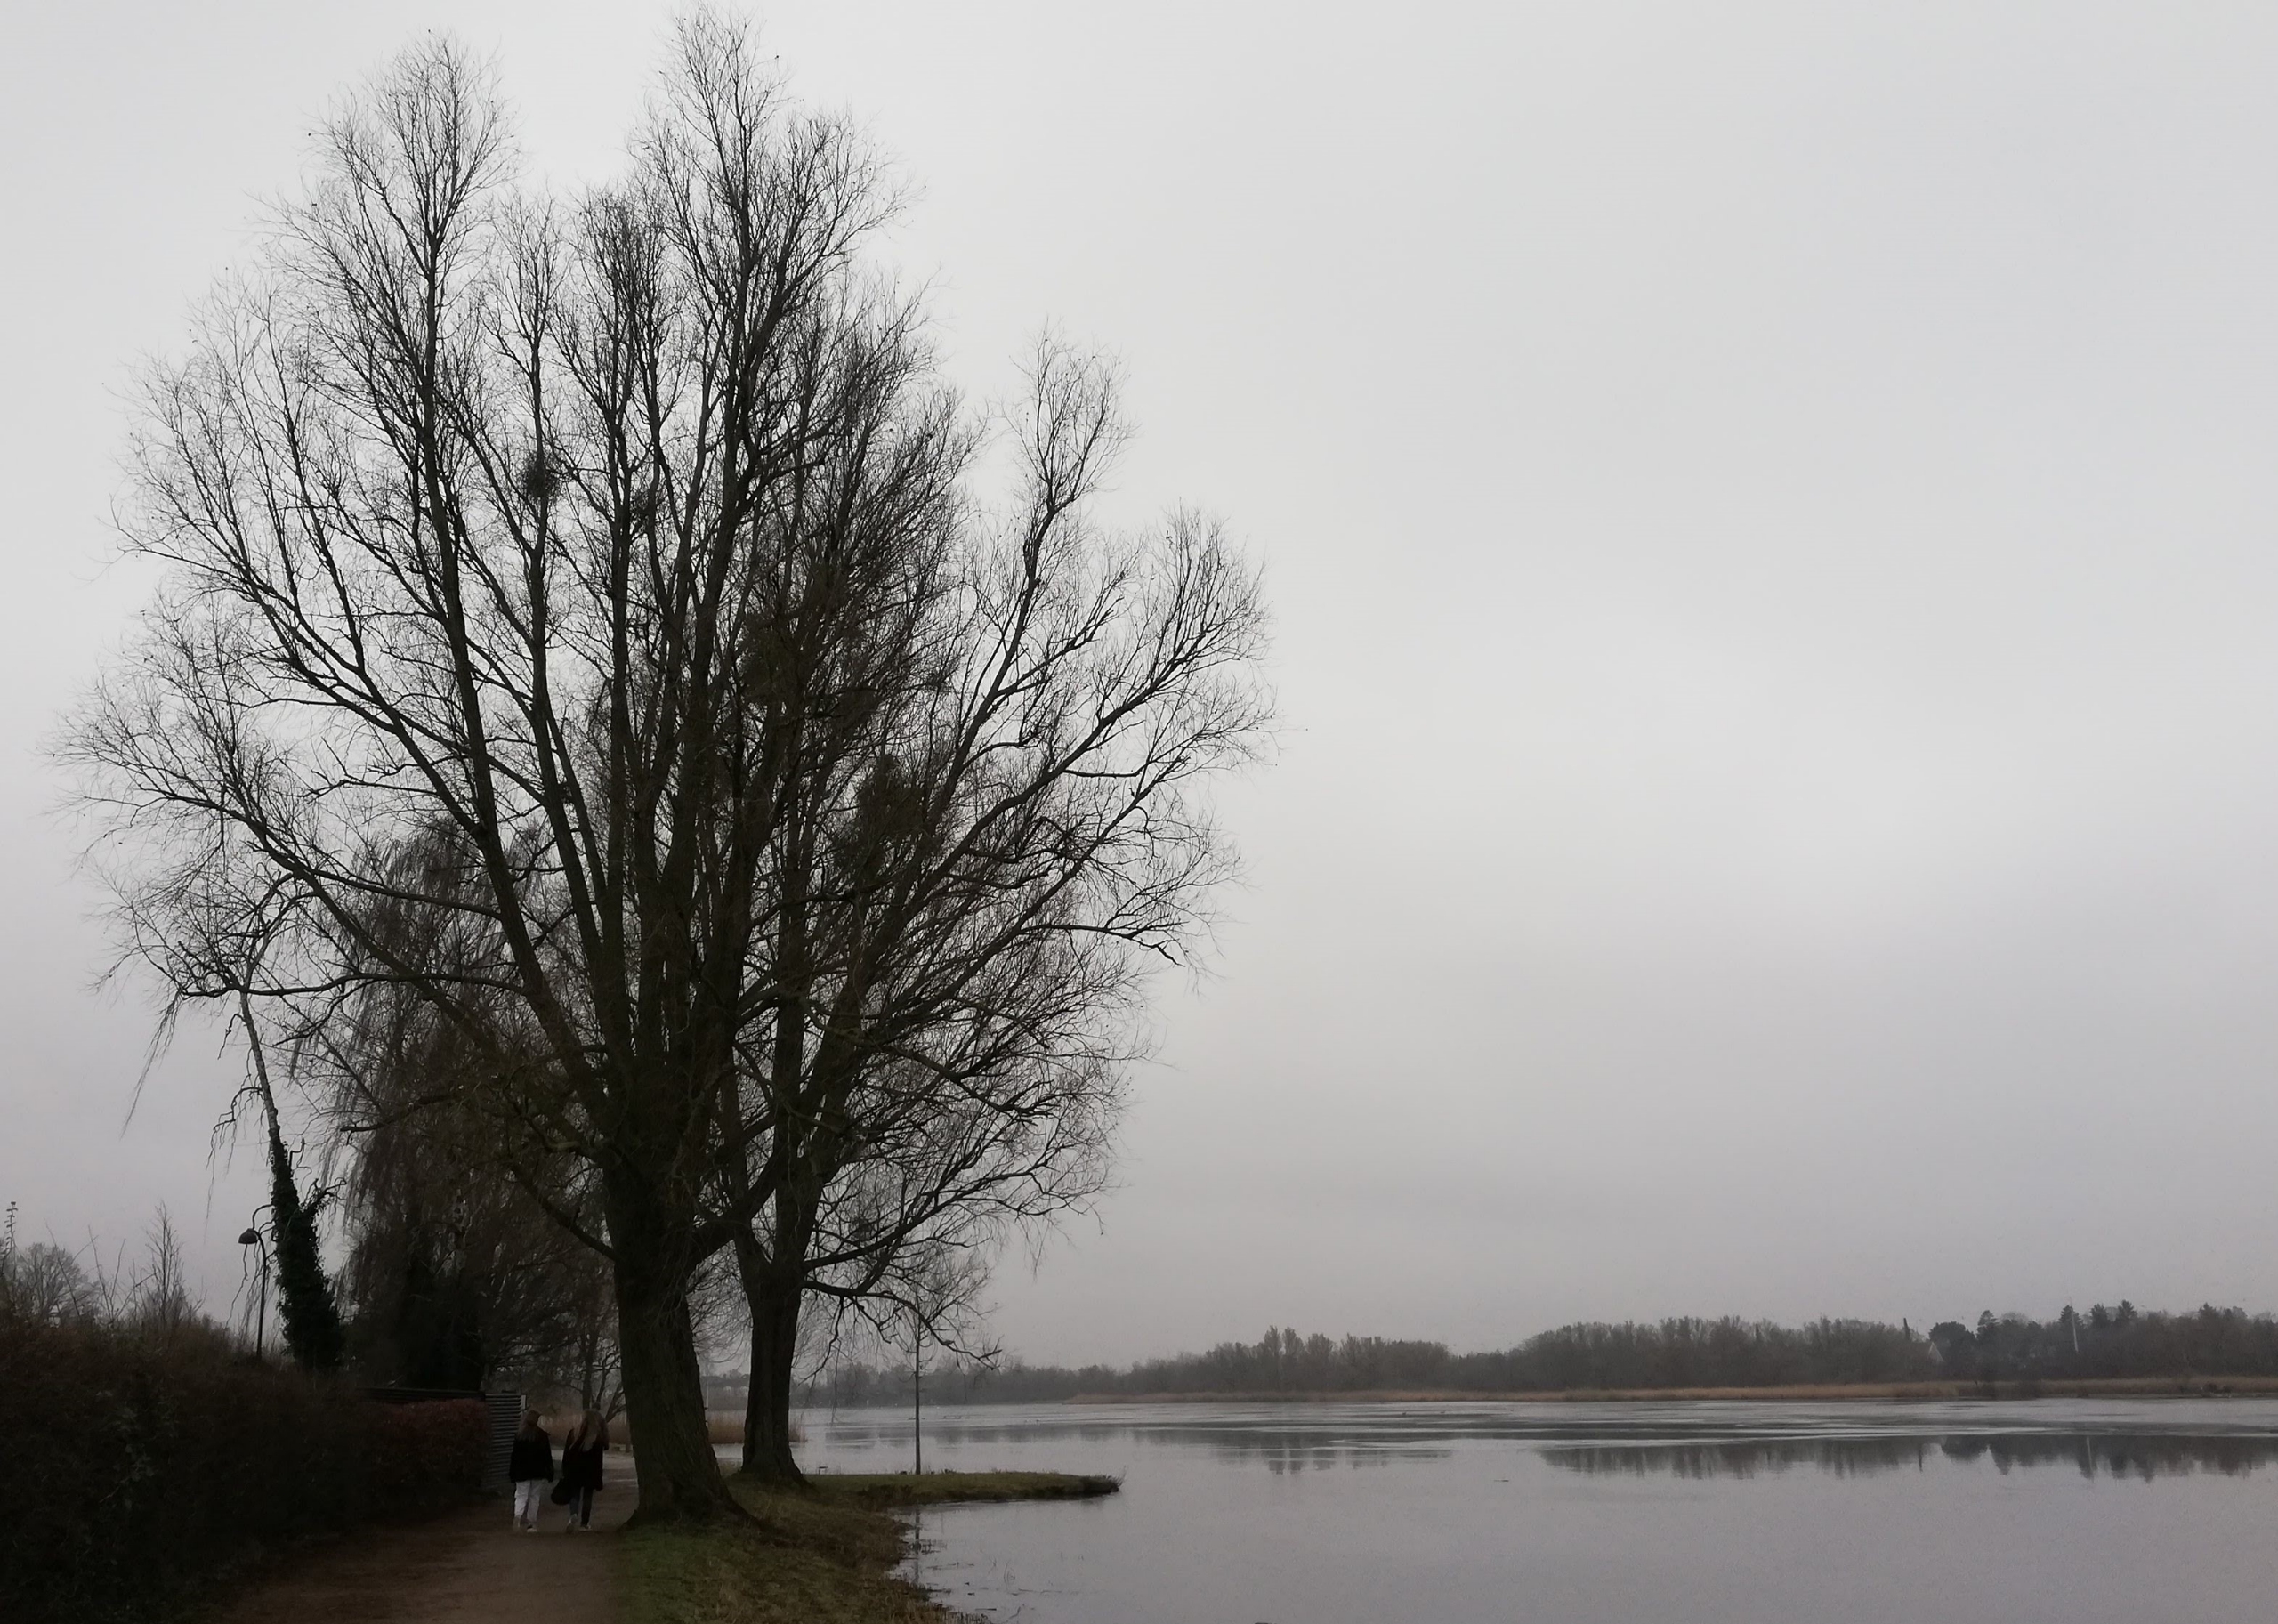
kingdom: Plantae
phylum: Tracheophyta
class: Magnoliopsida
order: Santalales
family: Viscaceae
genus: Viscum
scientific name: Viscum album
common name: Mistelten
